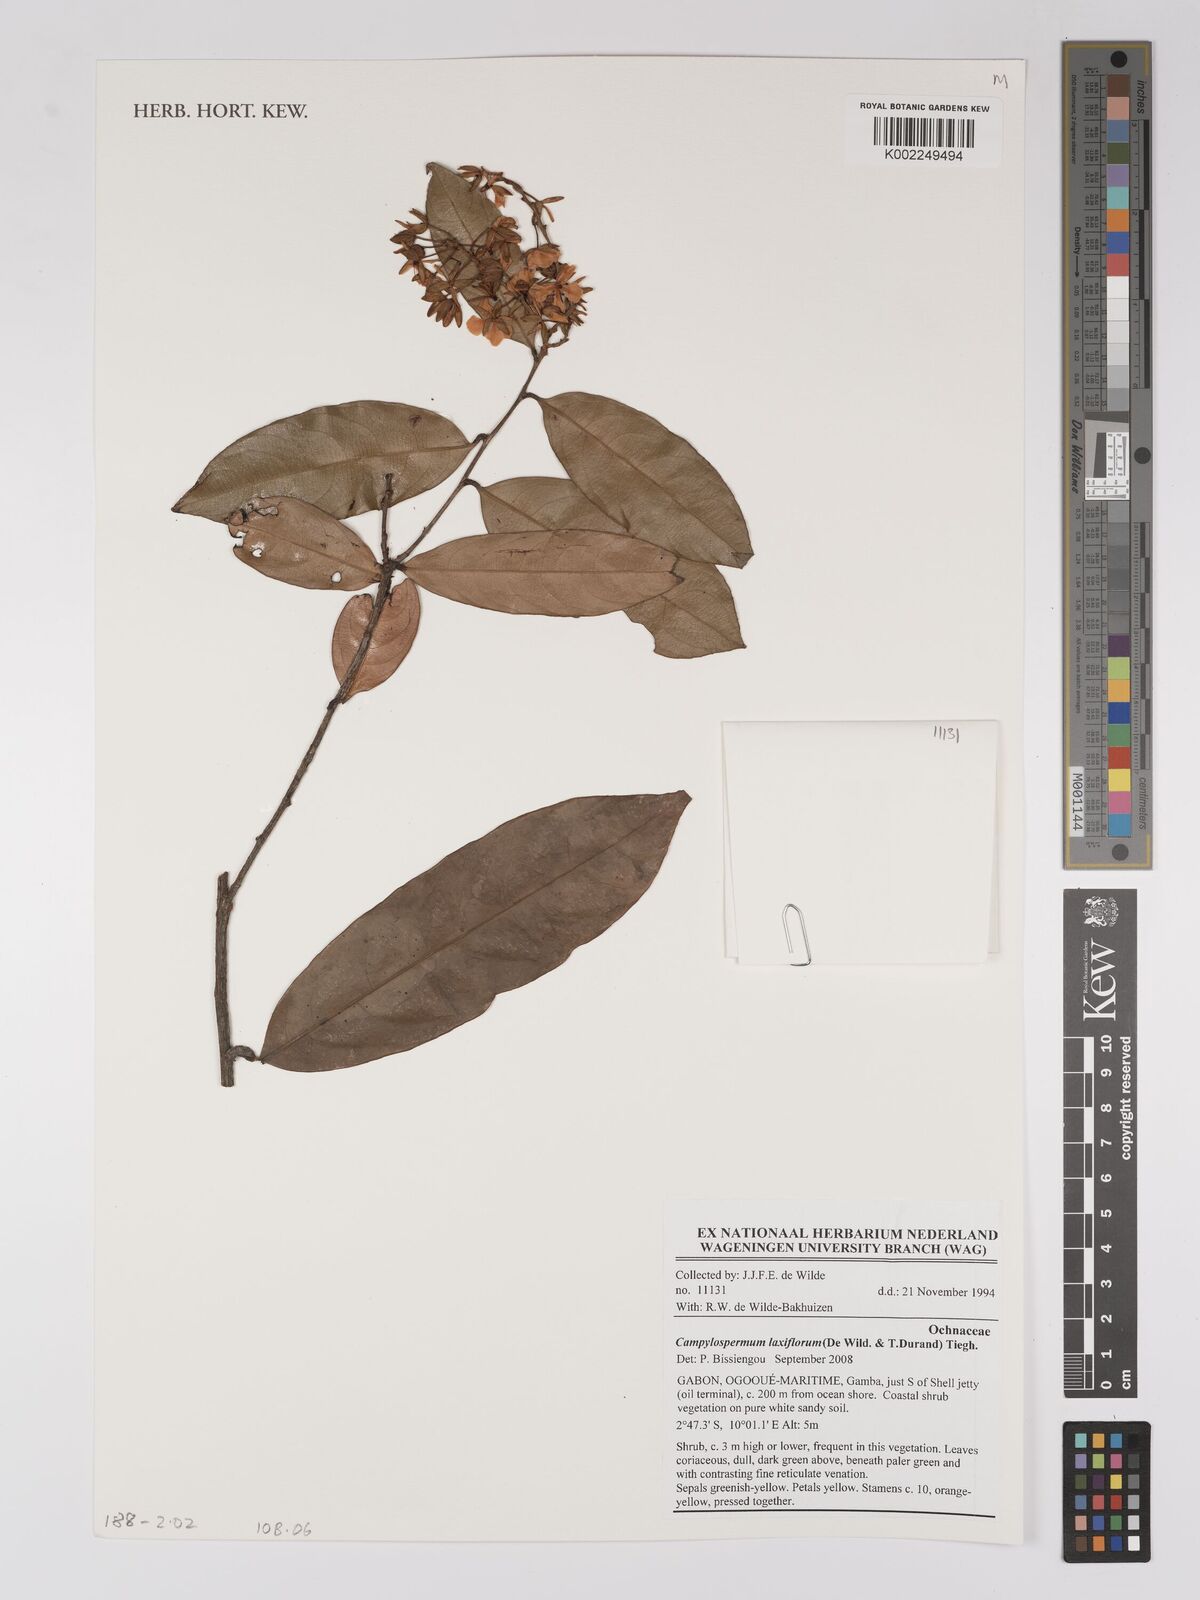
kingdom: Plantae
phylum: Tracheophyta
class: Magnoliopsida
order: Malpighiales
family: Ochnaceae
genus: Campylospermum
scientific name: Campylospermum laxiflorum
